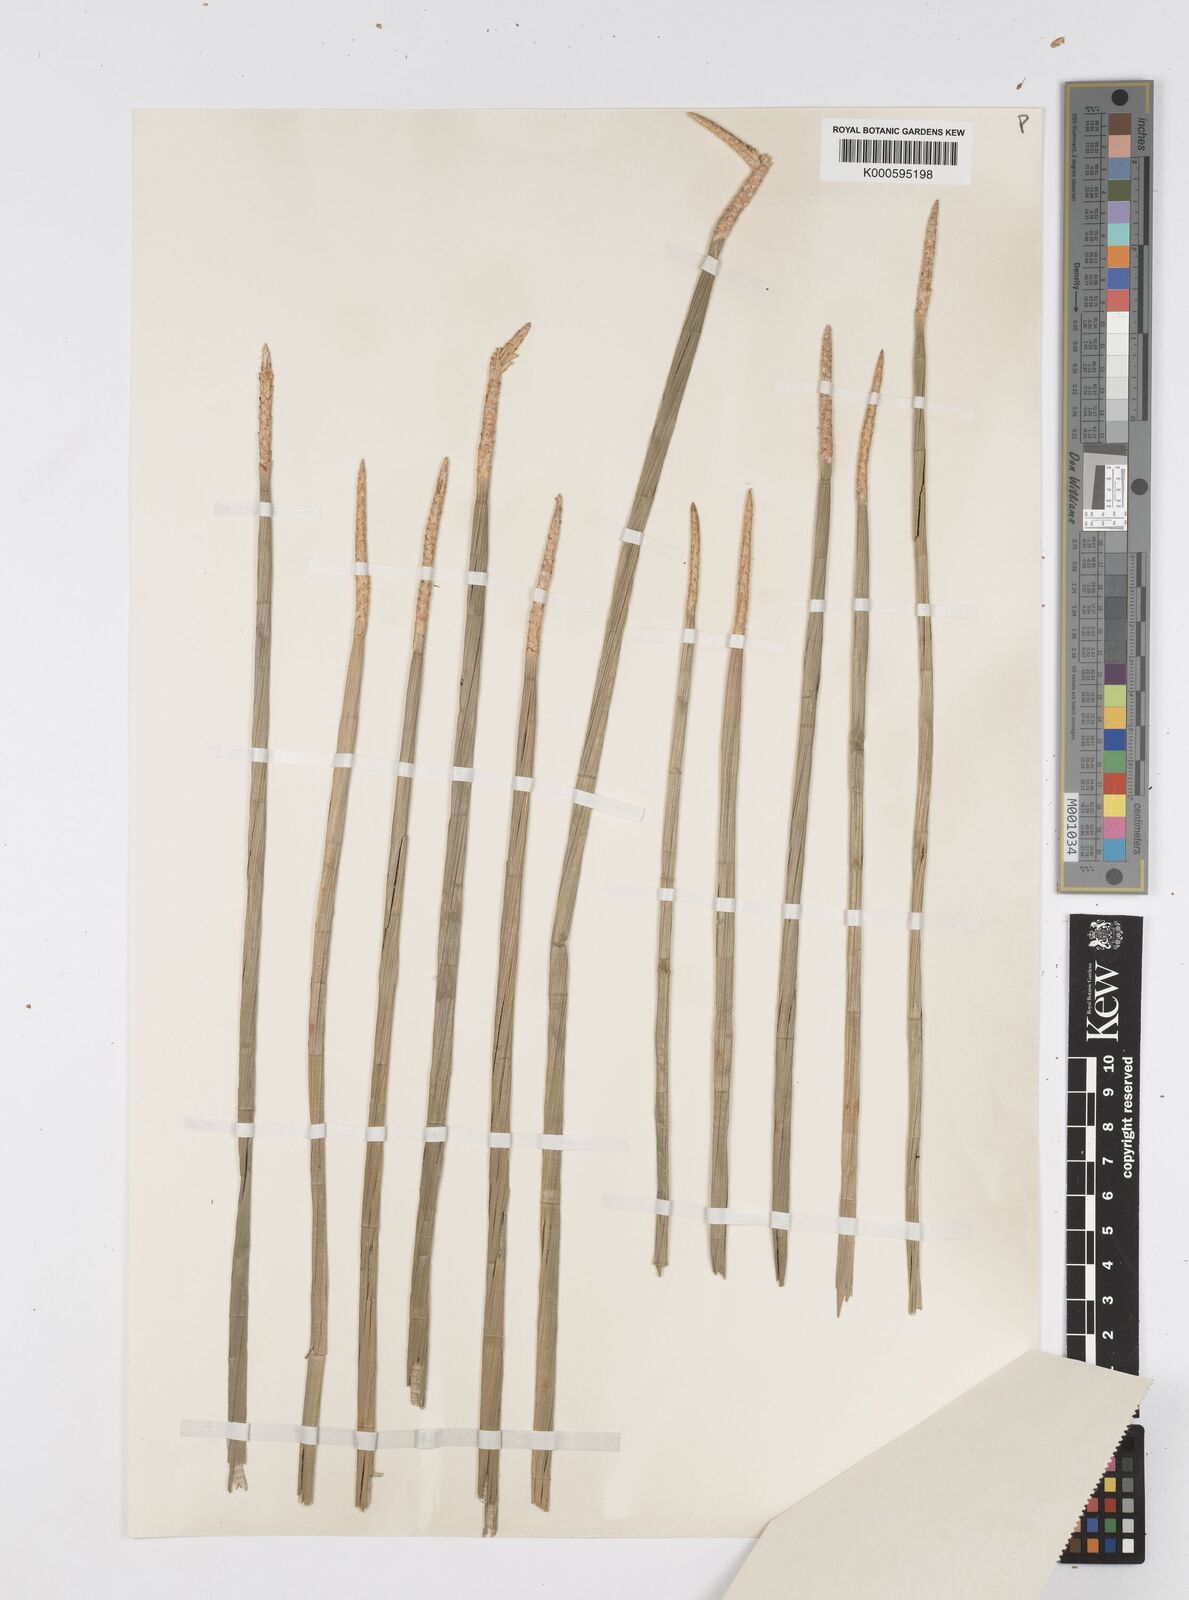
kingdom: Plantae
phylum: Tracheophyta
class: Liliopsida
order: Poales
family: Cyperaceae
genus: Eleocharis
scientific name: Eleocharis dulcis
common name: Chinese water chestnut
